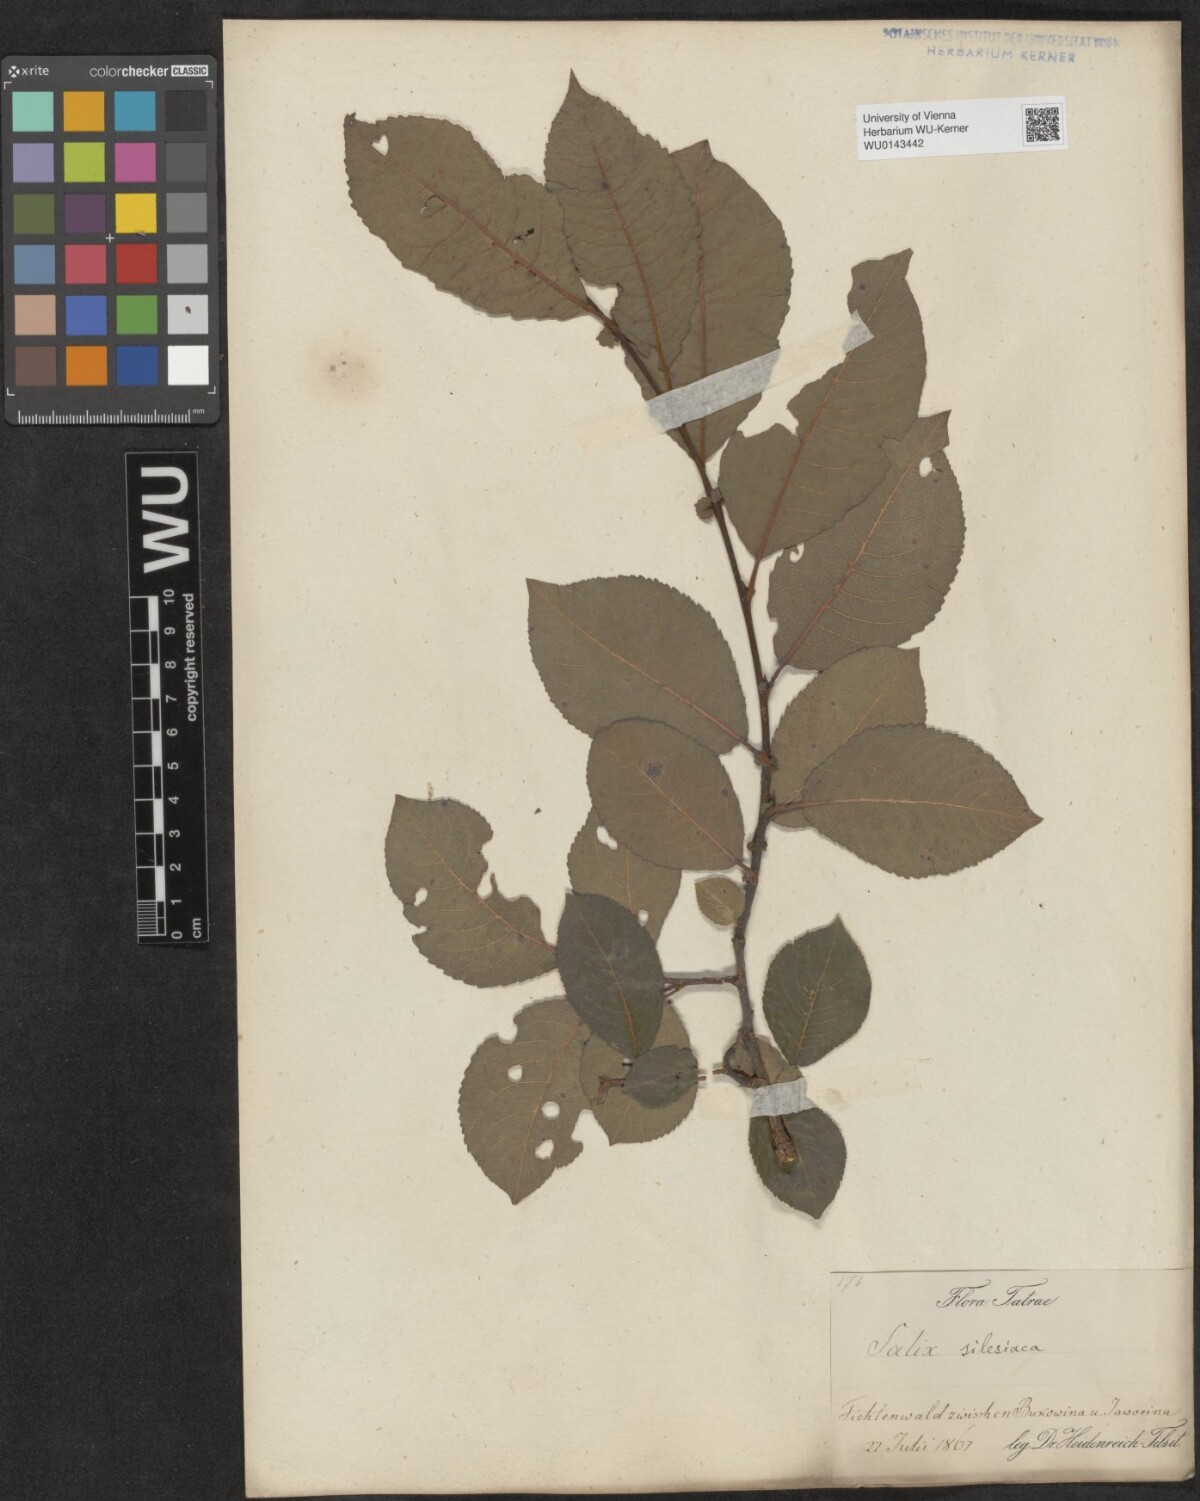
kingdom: Plantae
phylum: Tracheophyta
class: Magnoliopsida
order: Malpighiales
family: Salicaceae
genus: Salix
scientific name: Salix silesiaca
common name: Silesian willow
